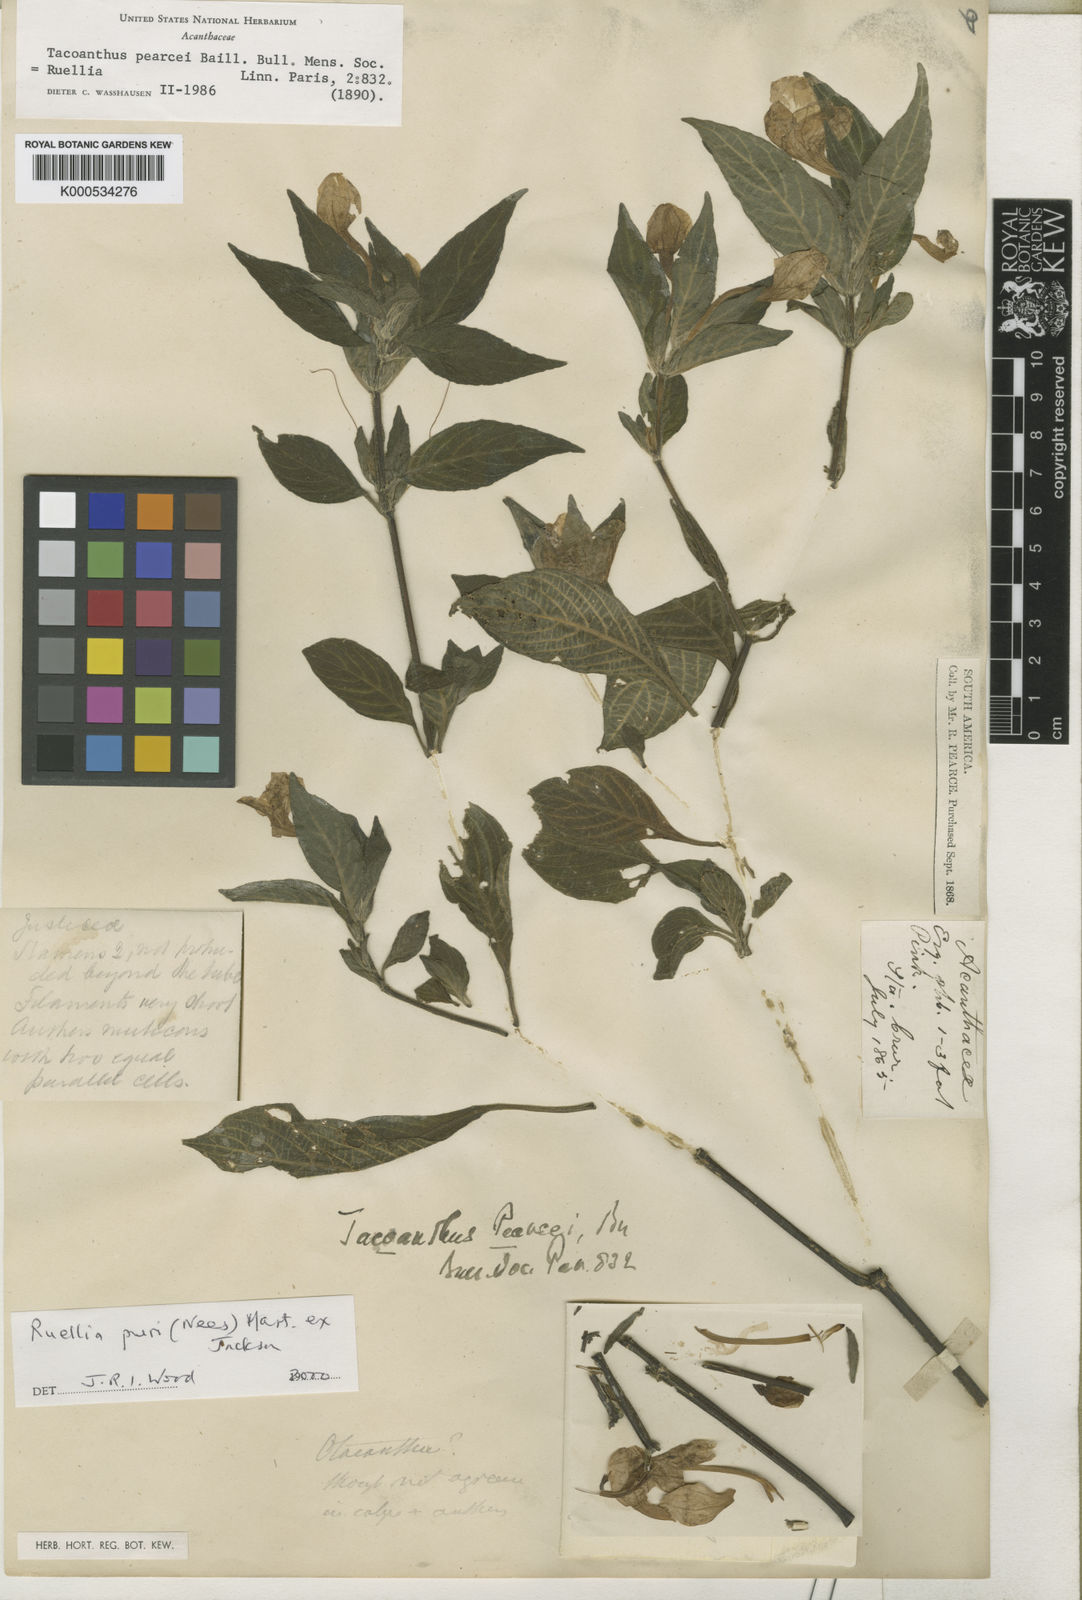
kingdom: Plantae
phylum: Tracheophyta
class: Magnoliopsida
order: Lamiales
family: Acanthaceae
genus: Ruellia
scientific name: Ruellia jussieuoides
